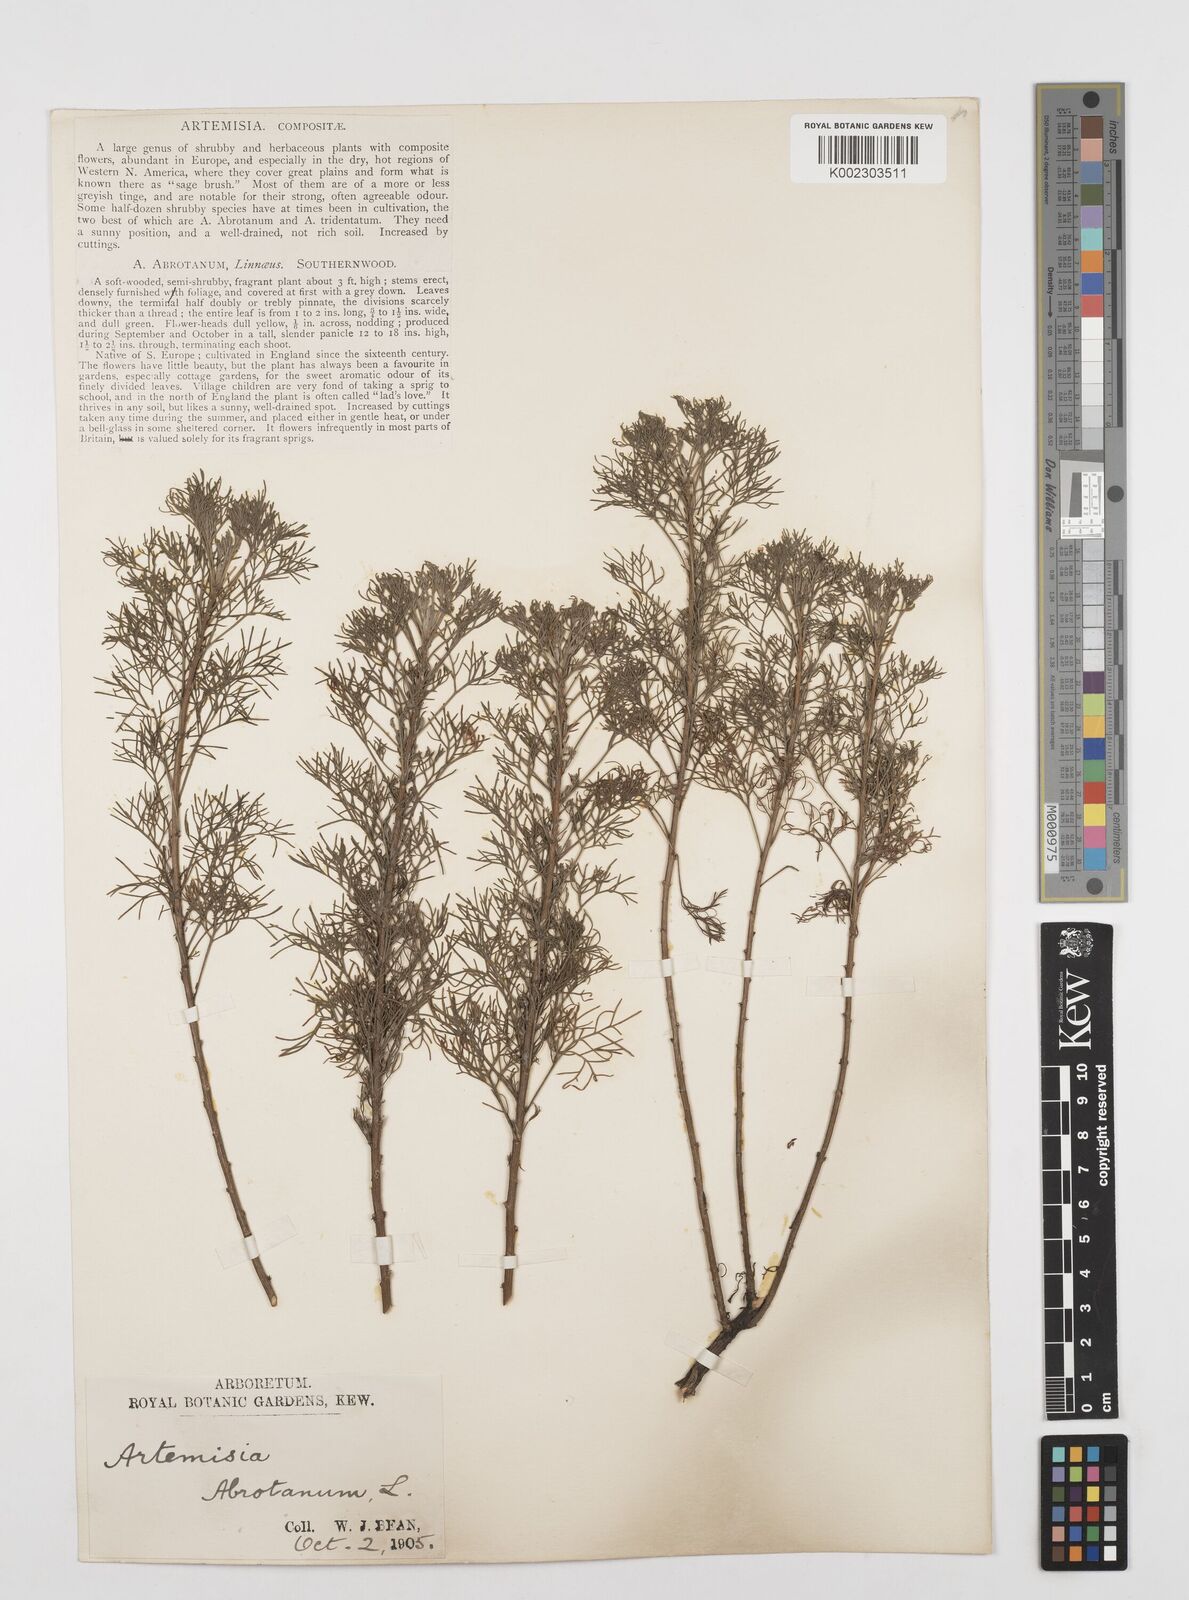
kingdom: Plantae
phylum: Tracheophyta
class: Magnoliopsida
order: Asterales
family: Asteraceae
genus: Artemisia
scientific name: Artemisia abrotanum
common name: Southernwood
